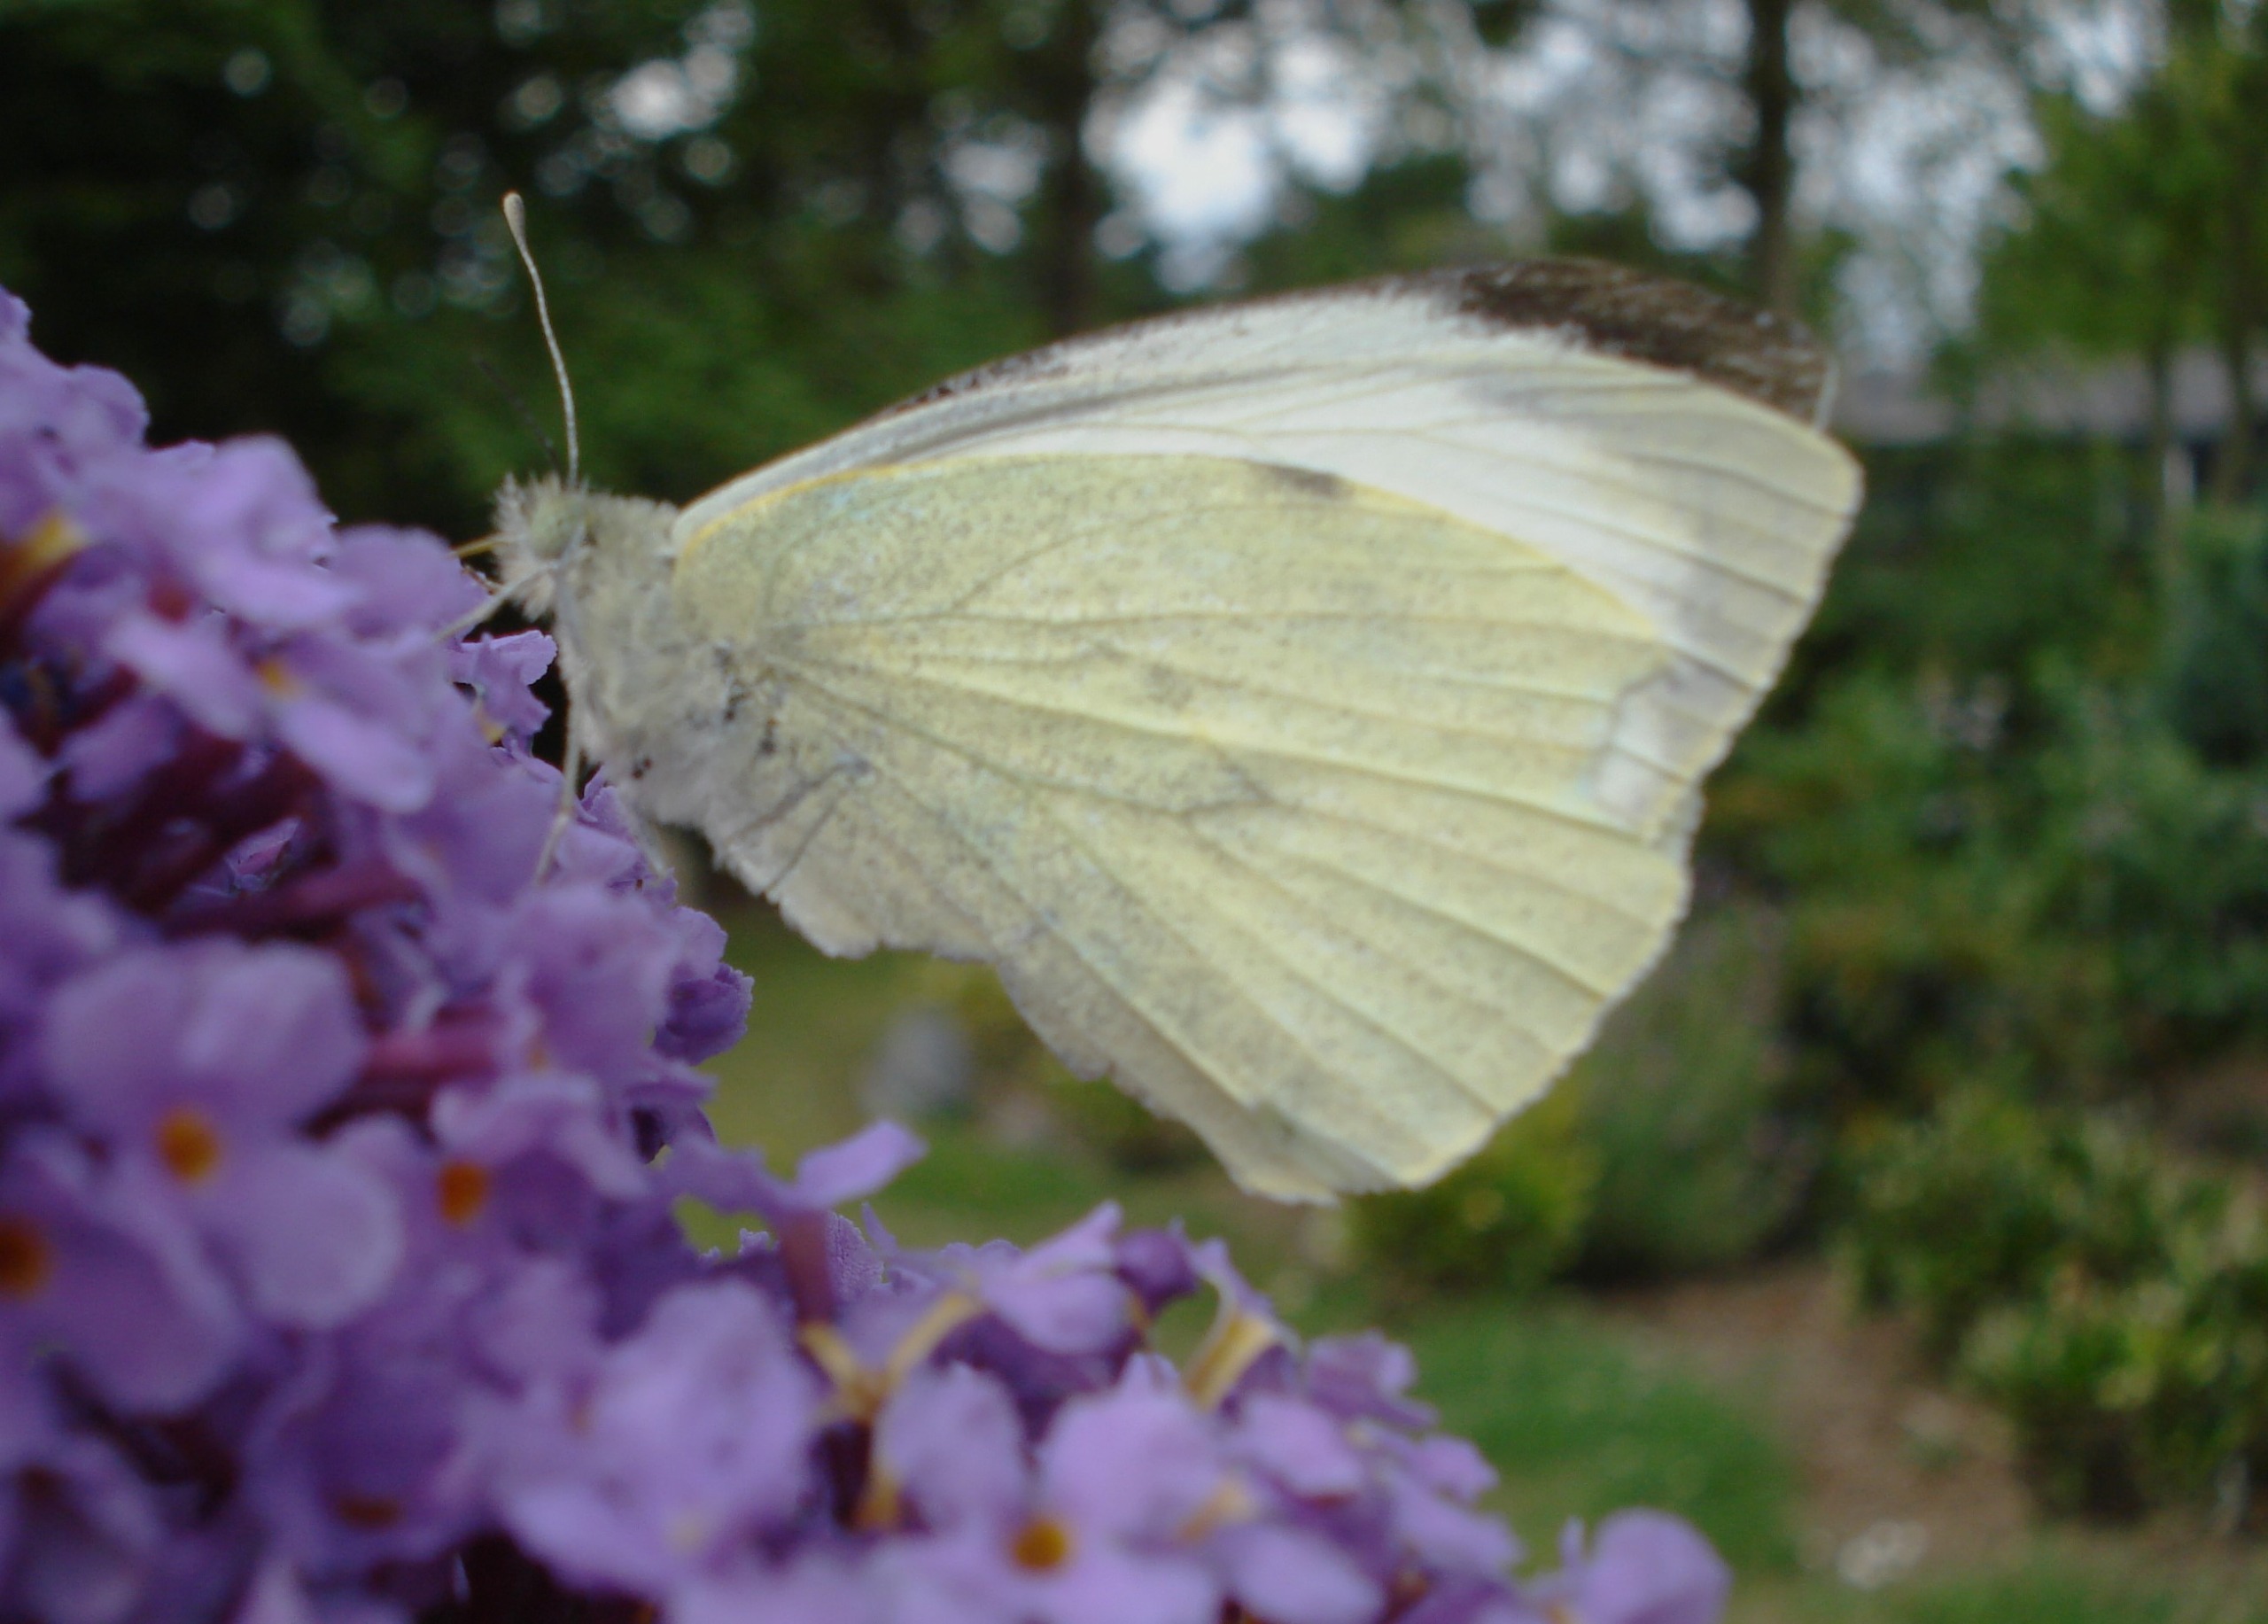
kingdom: Animalia
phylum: Arthropoda
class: Insecta
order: Lepidoptera
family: Pieridae
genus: Pieris
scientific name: Pieris brassicae
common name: Stor kålsommerfugl
